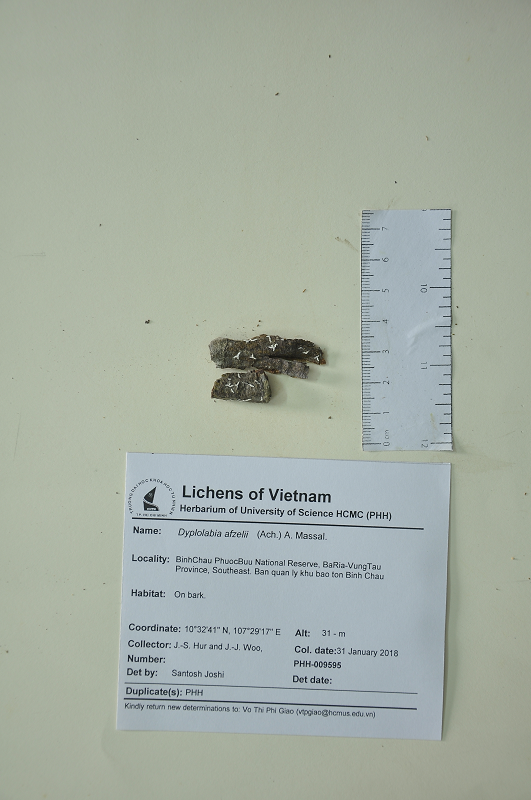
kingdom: Fungi
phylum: Ascomycota
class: Lecanoromycetes
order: Ostropales
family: Graphidaceae
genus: Dyplolabia
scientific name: Dyplolabia afzelii
